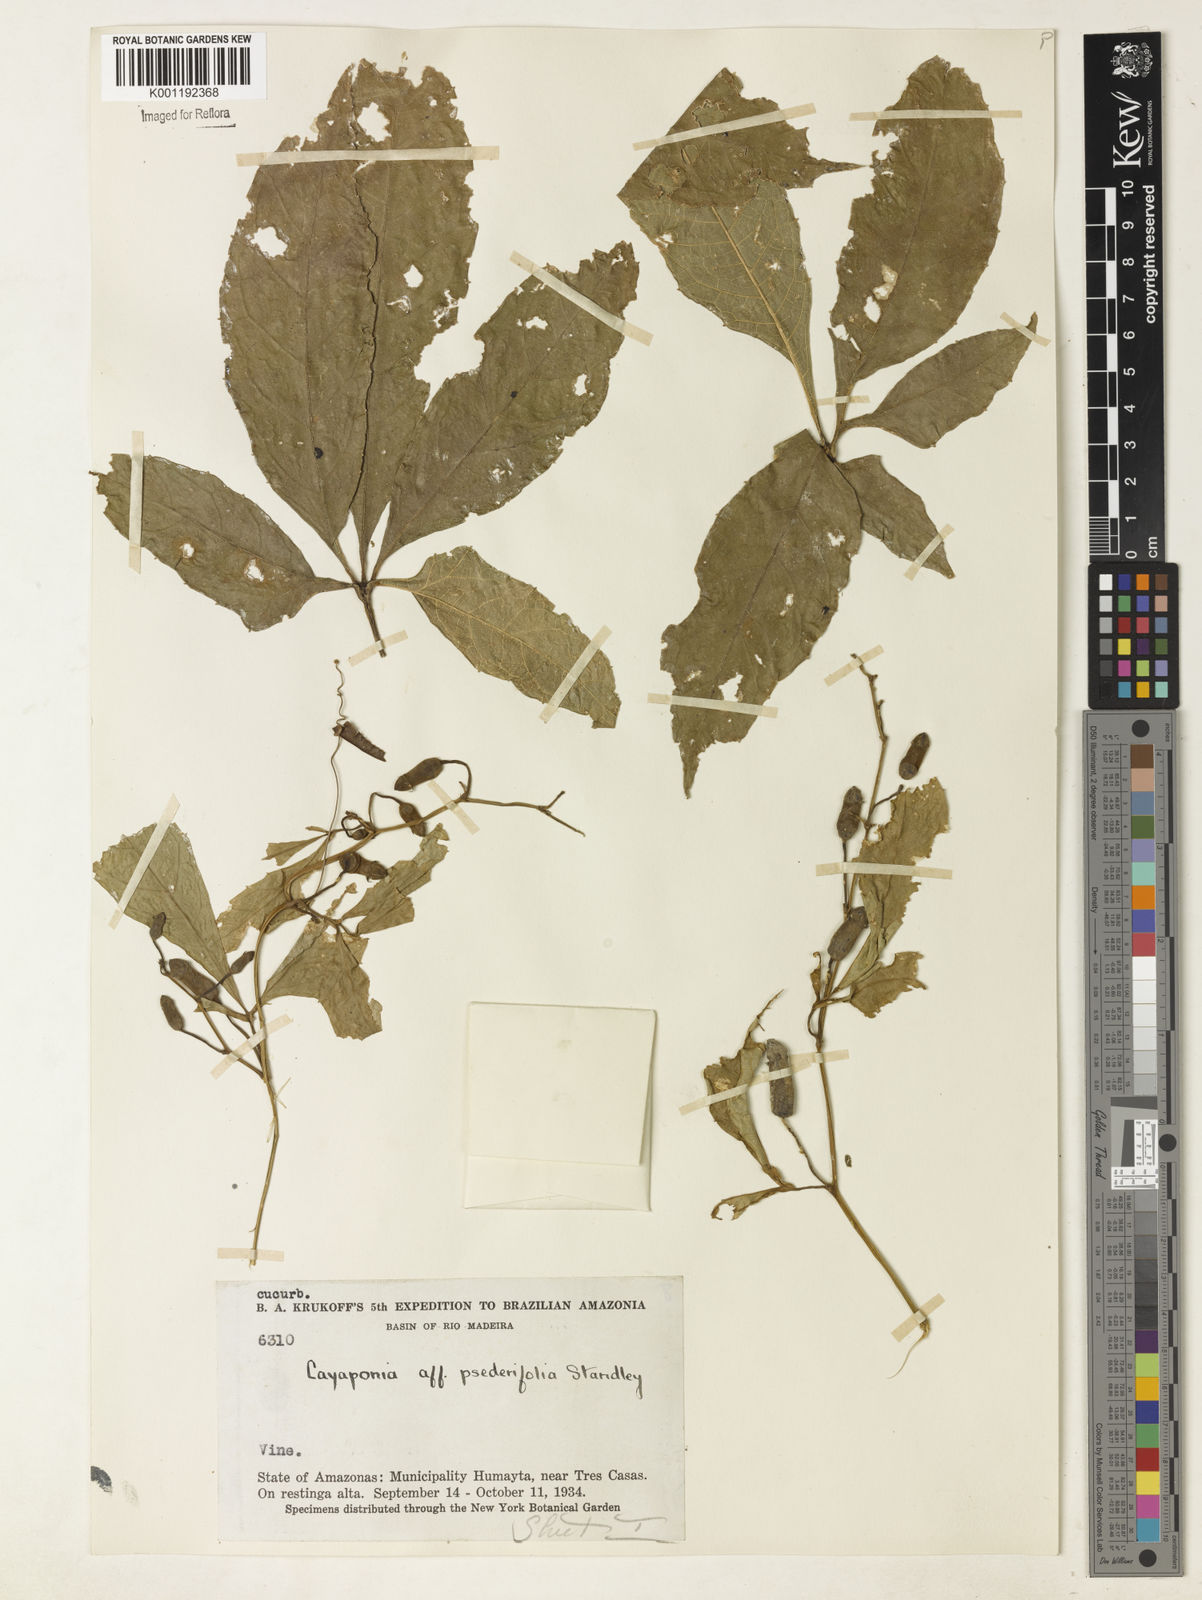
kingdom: Plantae
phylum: Tracheophyta
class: Magnoliopsida
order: Cucurbitales
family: Cucurbitaceae
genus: Cayaponia
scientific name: Cayaponia tubulosa
